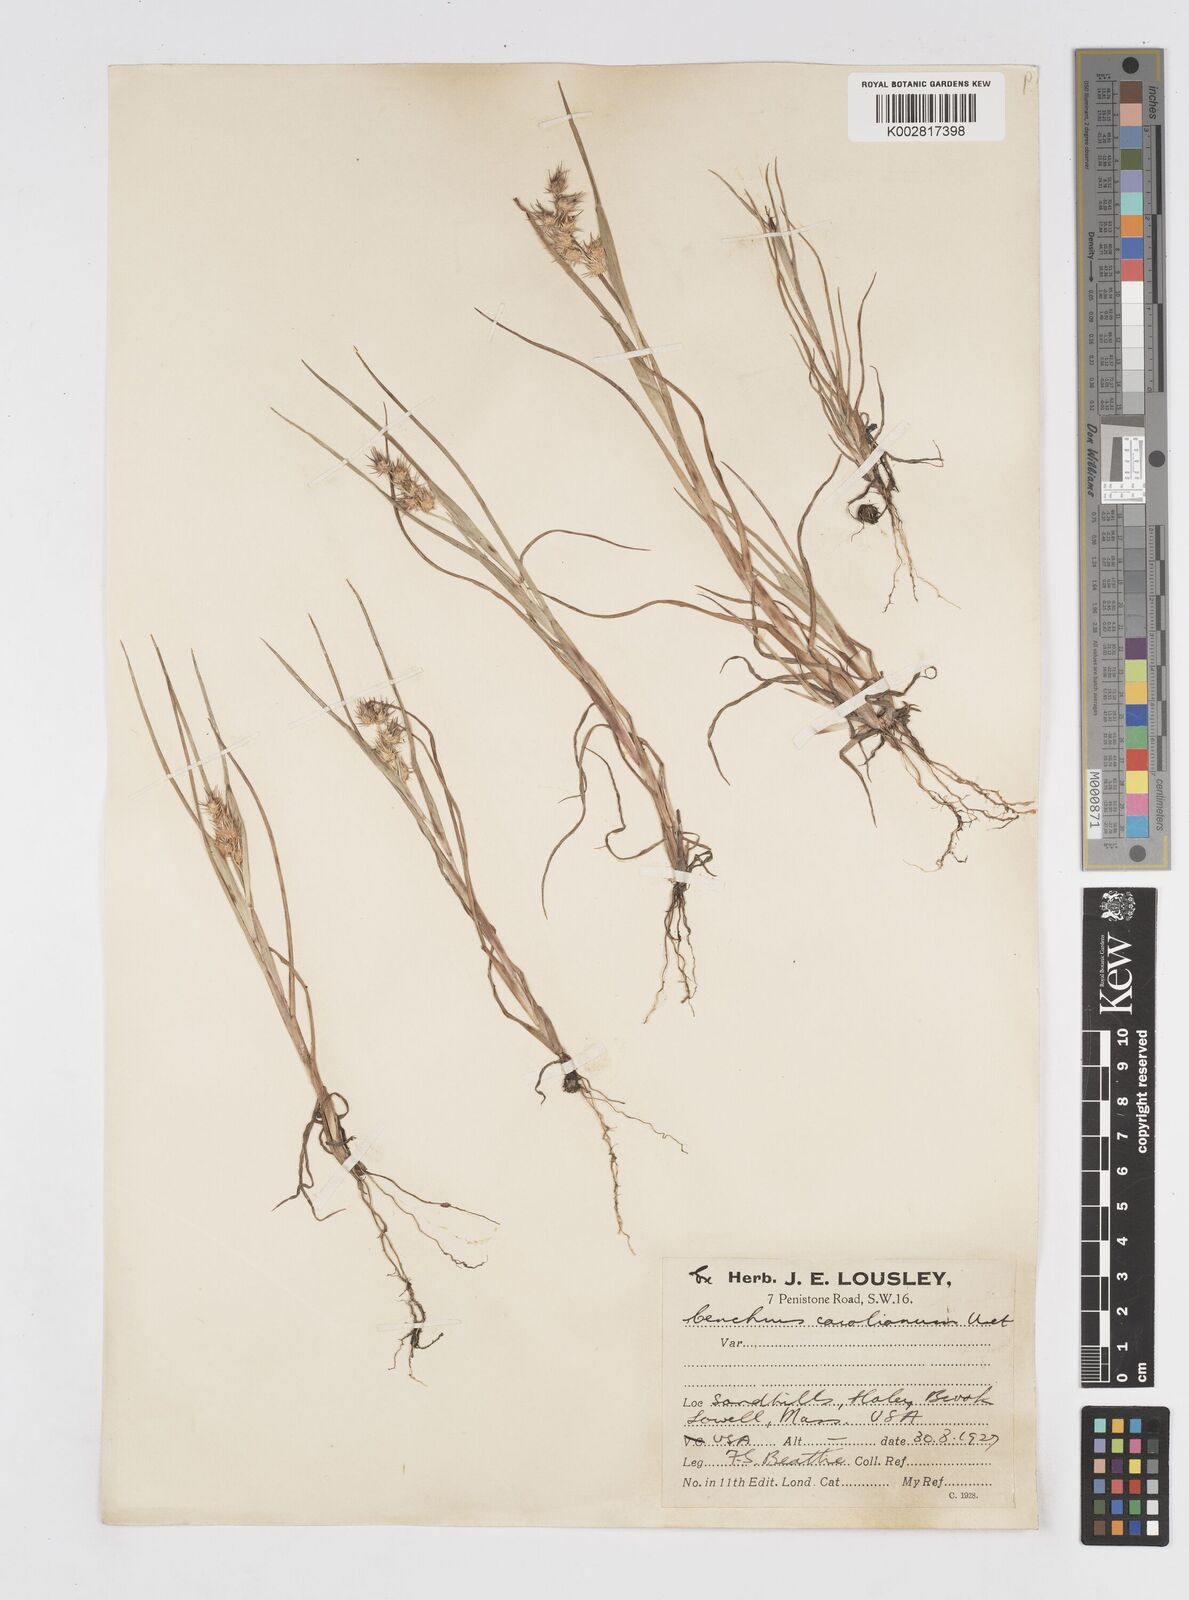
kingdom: Plantae
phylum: Tracheophyta
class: Liliopsida
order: Poales
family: Poaceae
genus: Cenchrus
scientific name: Cenchrus longispinus
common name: Mat sandbur
